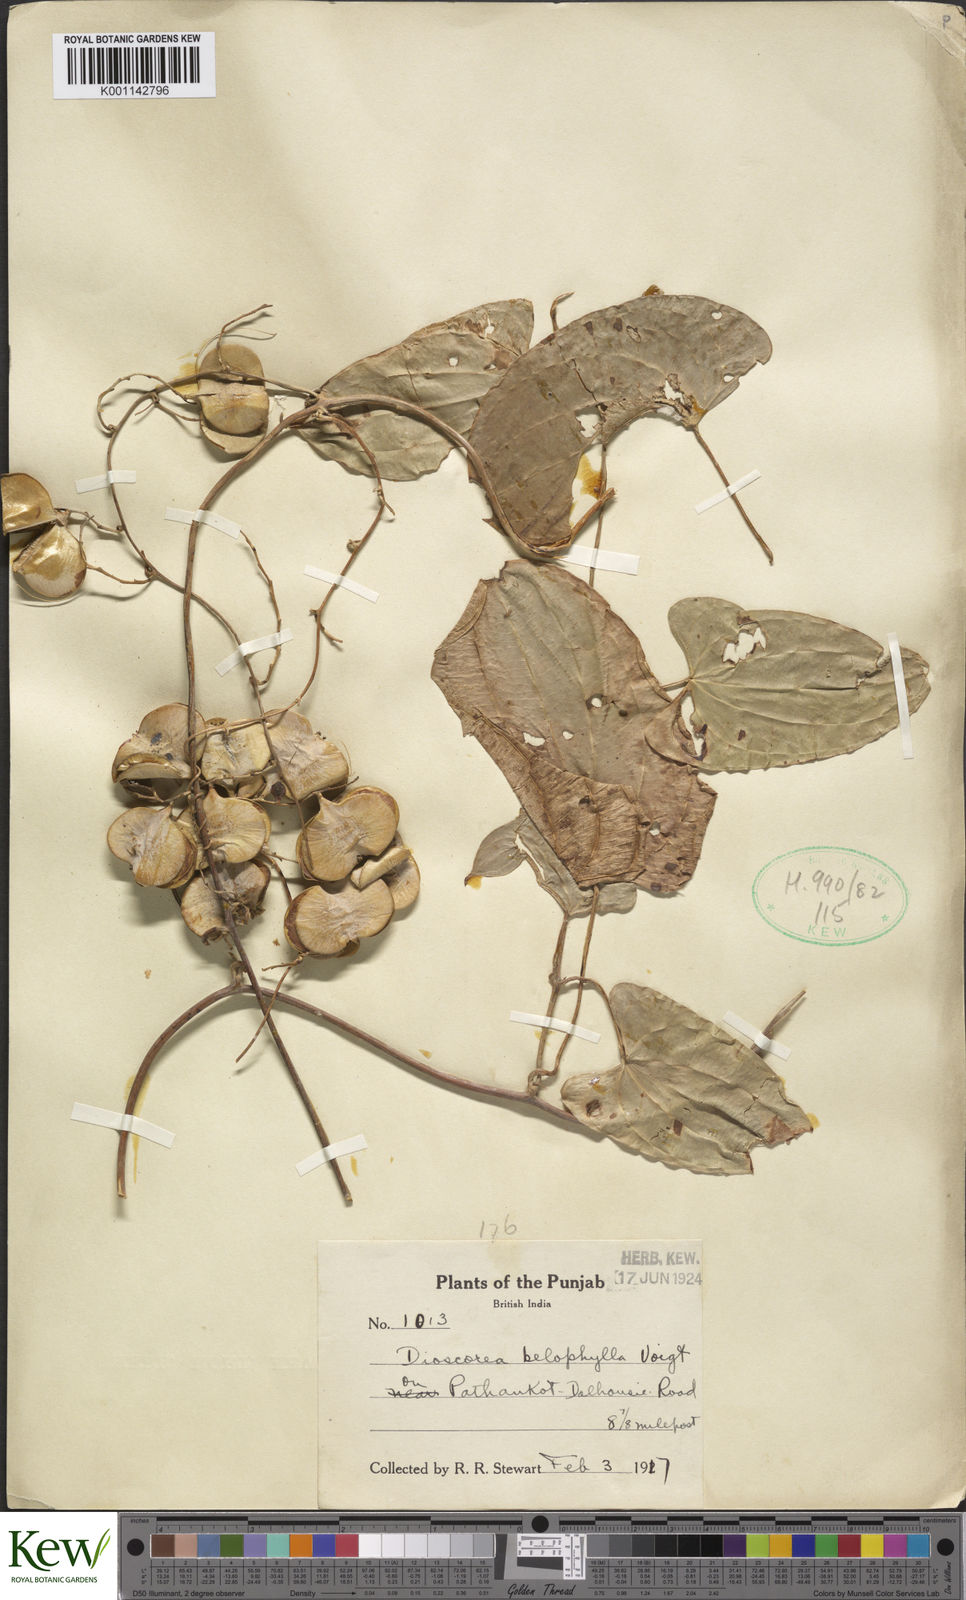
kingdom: Plantae
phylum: Tracheophyta
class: Liliopsida
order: Dioscoreales
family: Dioscoreaceae
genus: Dioscorea
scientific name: Dioscorea belophylla
